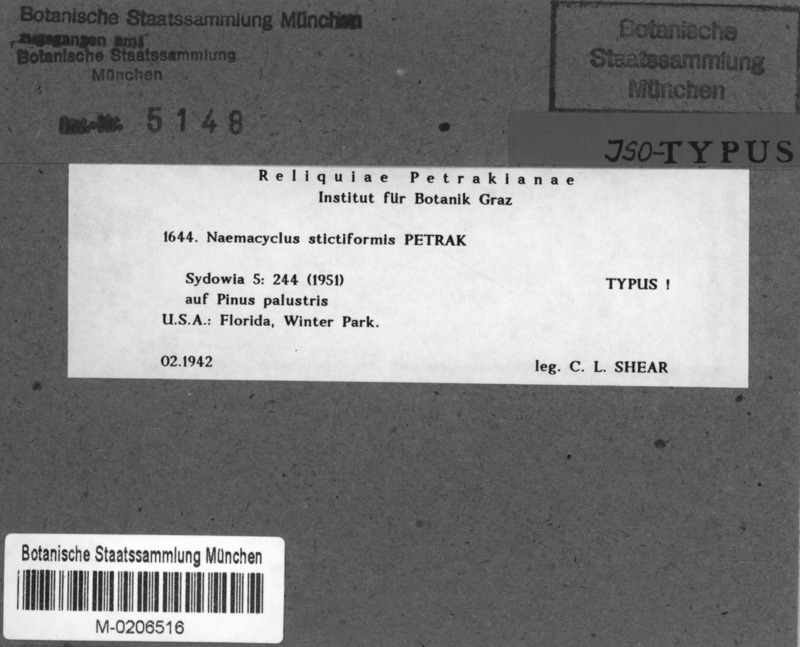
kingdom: Fungi
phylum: Ascomycota
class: Leotiomycetes
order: Chaetomellales
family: Marthamycetaceae
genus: Naemacyclus
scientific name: Naemacyclus stictiformis
